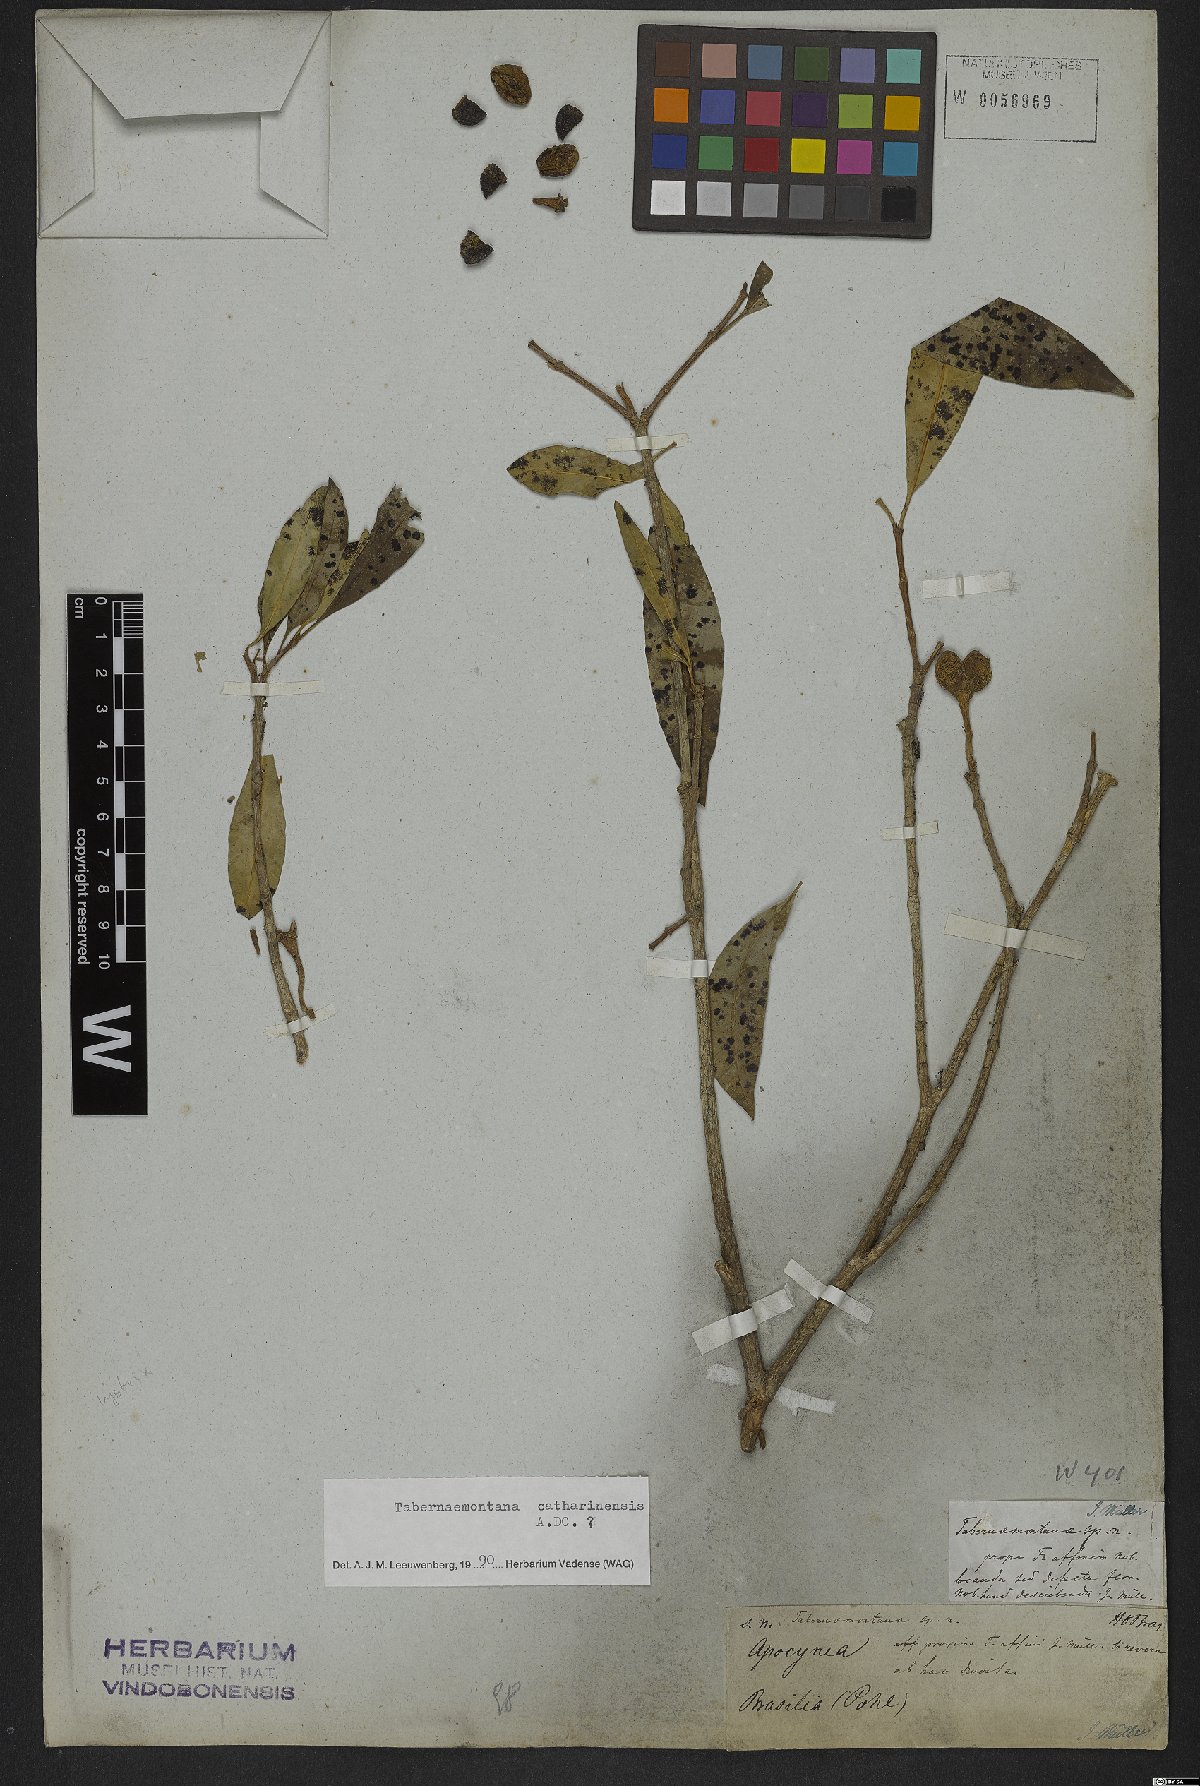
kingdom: Plantae
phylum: Tracheophyta
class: Magnoliopsida
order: Gentianales
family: Apocynaceae
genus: Tabernaemontana
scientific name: Tabernaemontana catharinensis
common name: Pinwheel-flower
